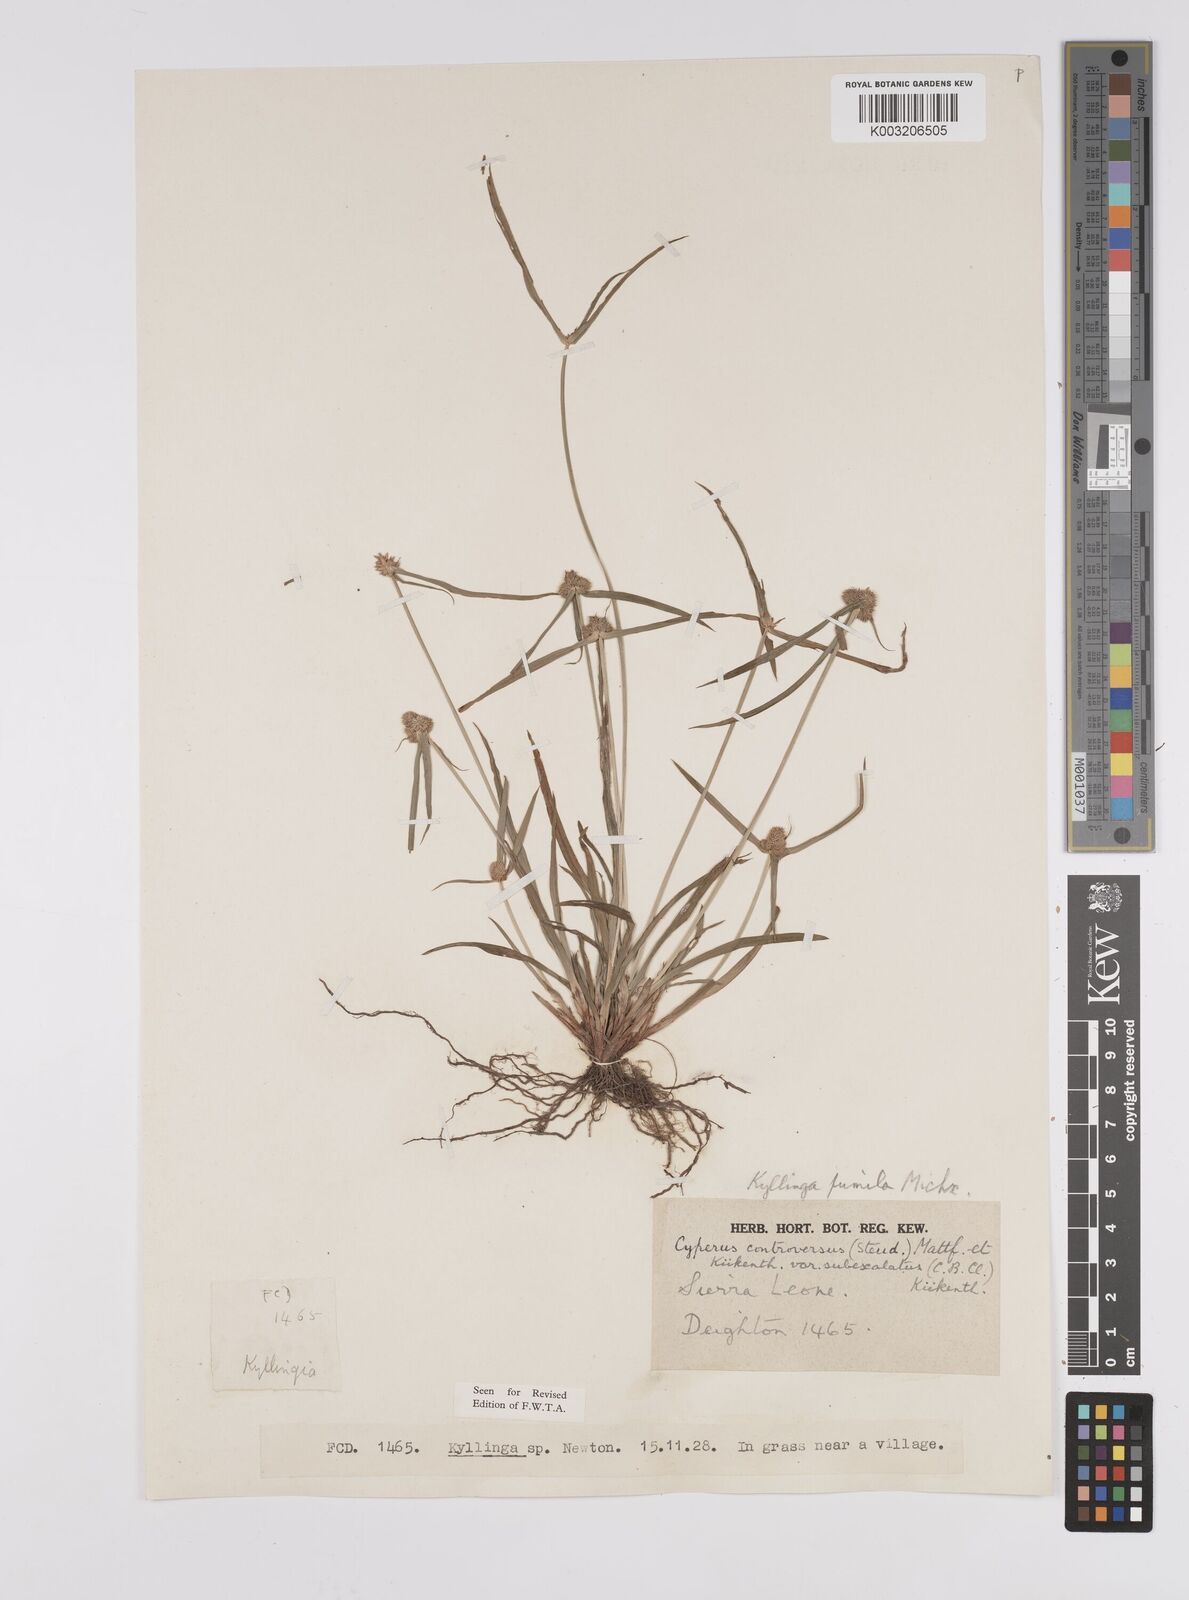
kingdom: Plantae
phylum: Tracheophyta
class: Liliopsida
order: Poales
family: Cyperaceae
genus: Cyperus
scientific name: Cyperus
